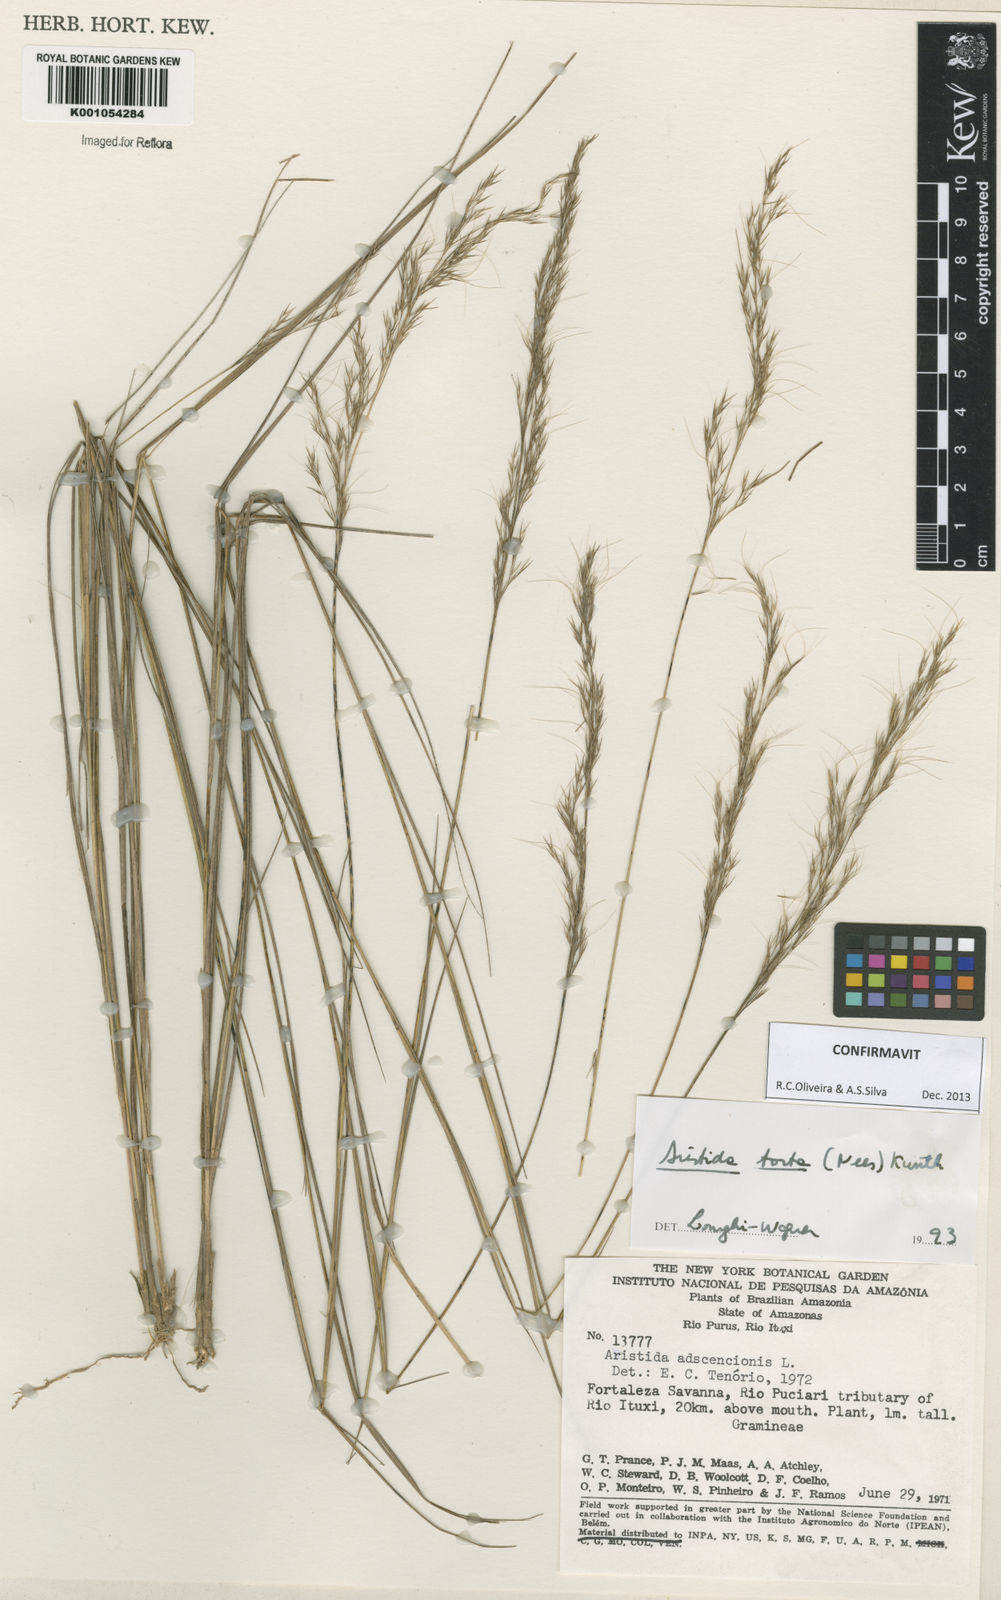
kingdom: Plantae
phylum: Tracheophyta
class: Liliopsida
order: Poales
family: Poaceae
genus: Aristida
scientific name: Aristida torta
